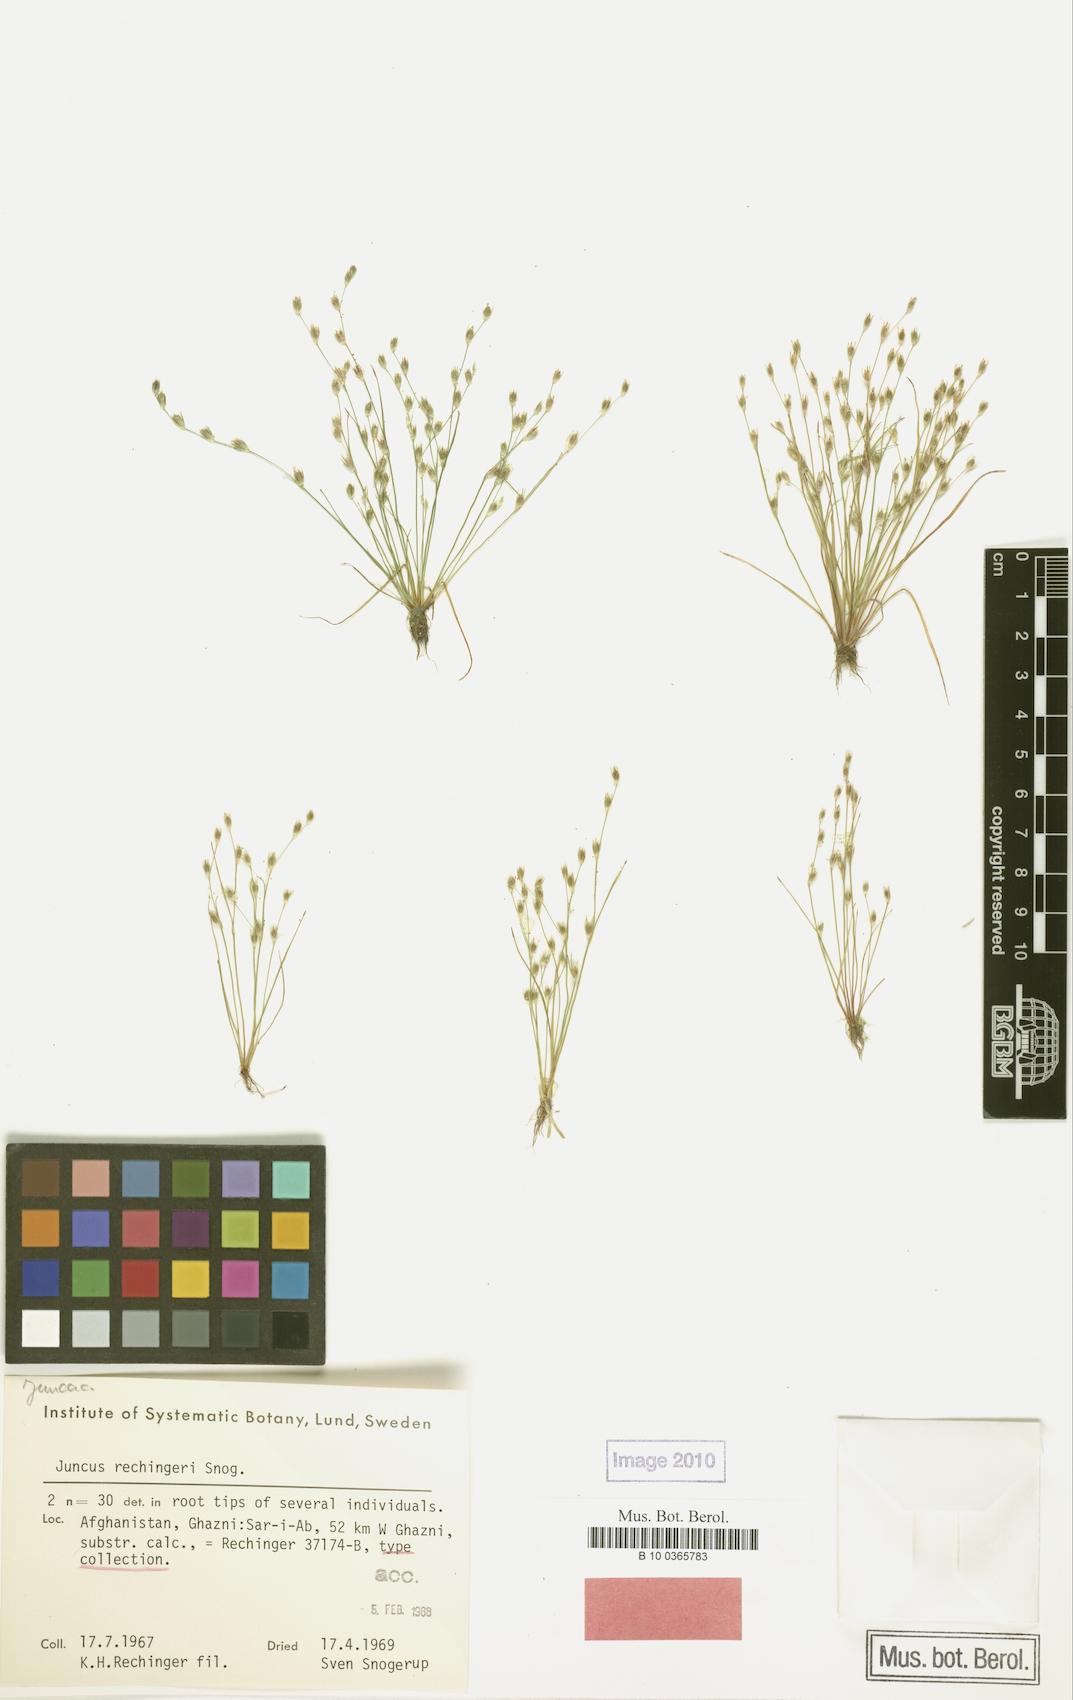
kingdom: Plantae
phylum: Tracheophyta
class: Liliopsida
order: Poales
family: Juncaceae
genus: Juncus
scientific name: Juncus rechingeri
